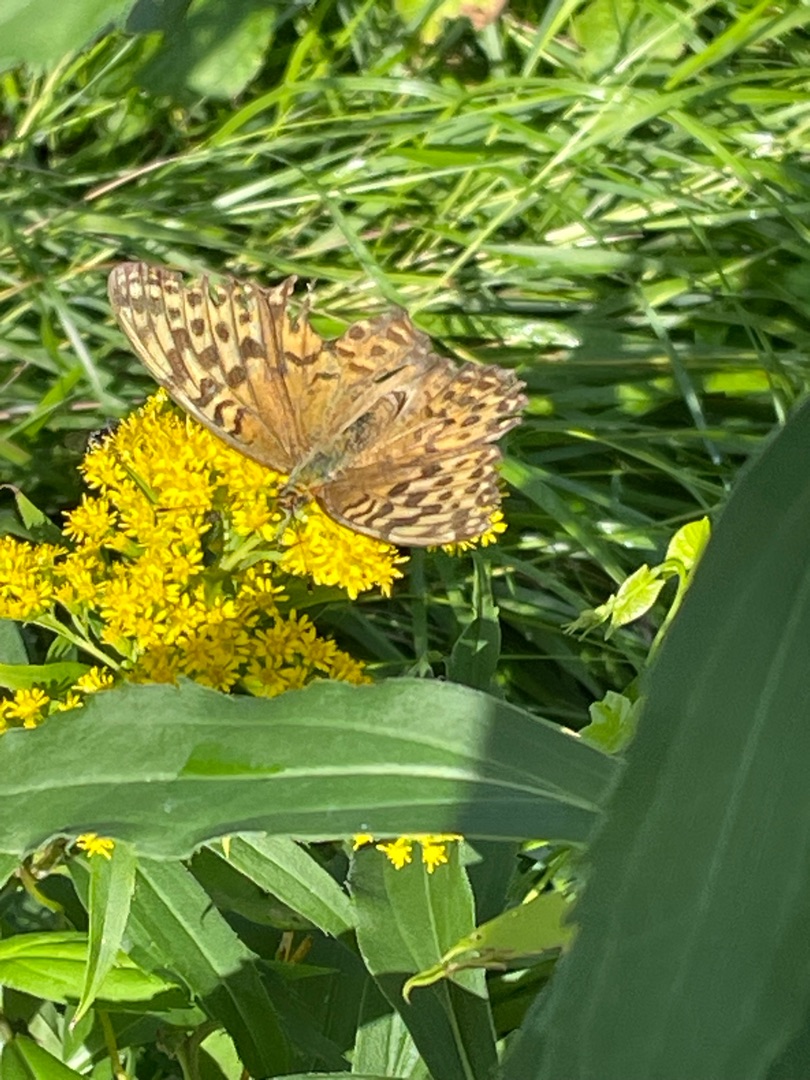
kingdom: Animalia
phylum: Arthropoda
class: Insecta
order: Lepidoptera
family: Nymphalidae
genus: Argynnis
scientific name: Argynnis paphia
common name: Kejserkåbe
